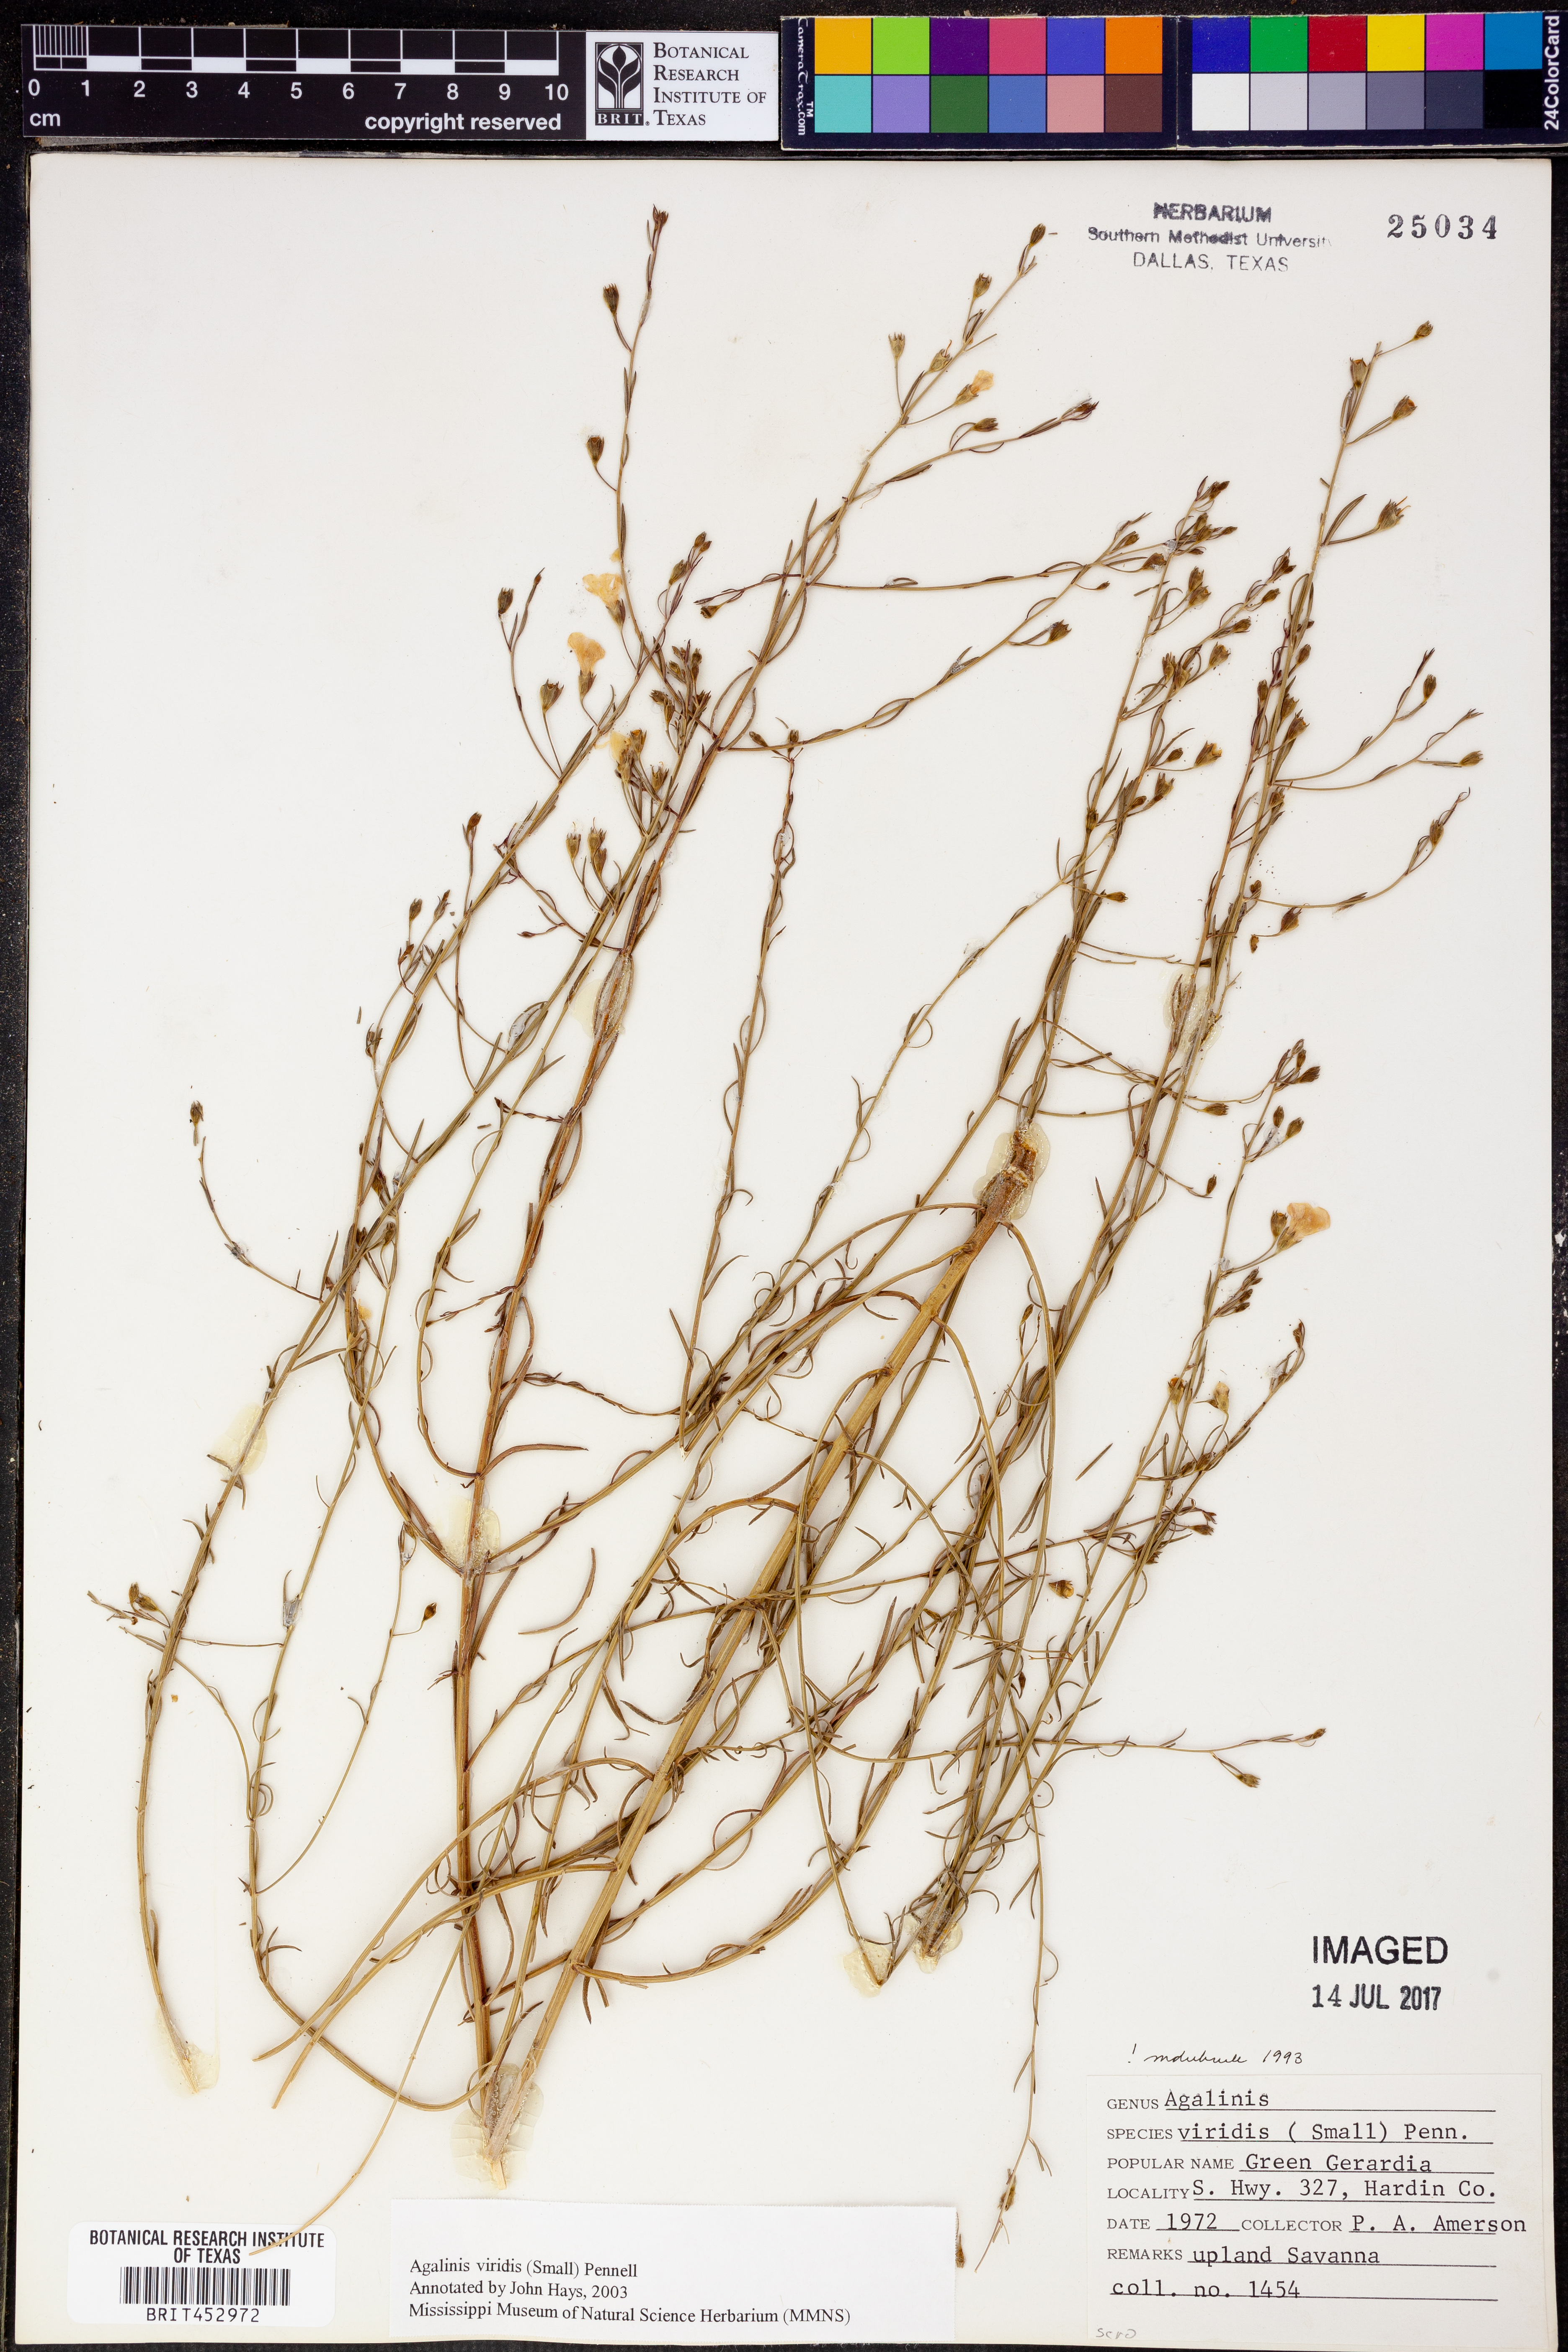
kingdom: Plantae
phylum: Tracheophyta
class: Magnoliopsida
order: Lamiales
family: Orobanchaceae
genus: Agalinis
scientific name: Agalinis viridis
